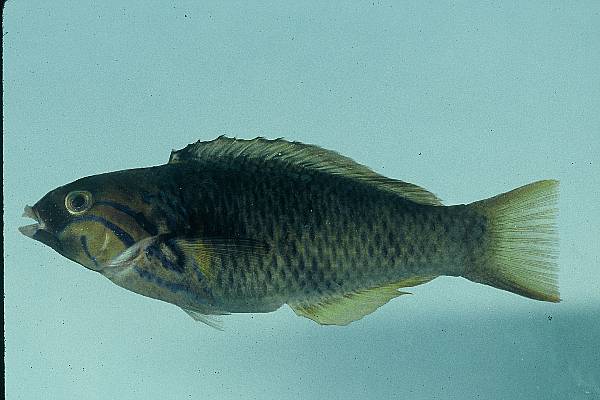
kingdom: Animalia
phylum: Chordata
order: Perciformes
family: Labridae
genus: Thalassoma
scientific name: Thalassoma hebraicum
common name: Goldbar wrasse
